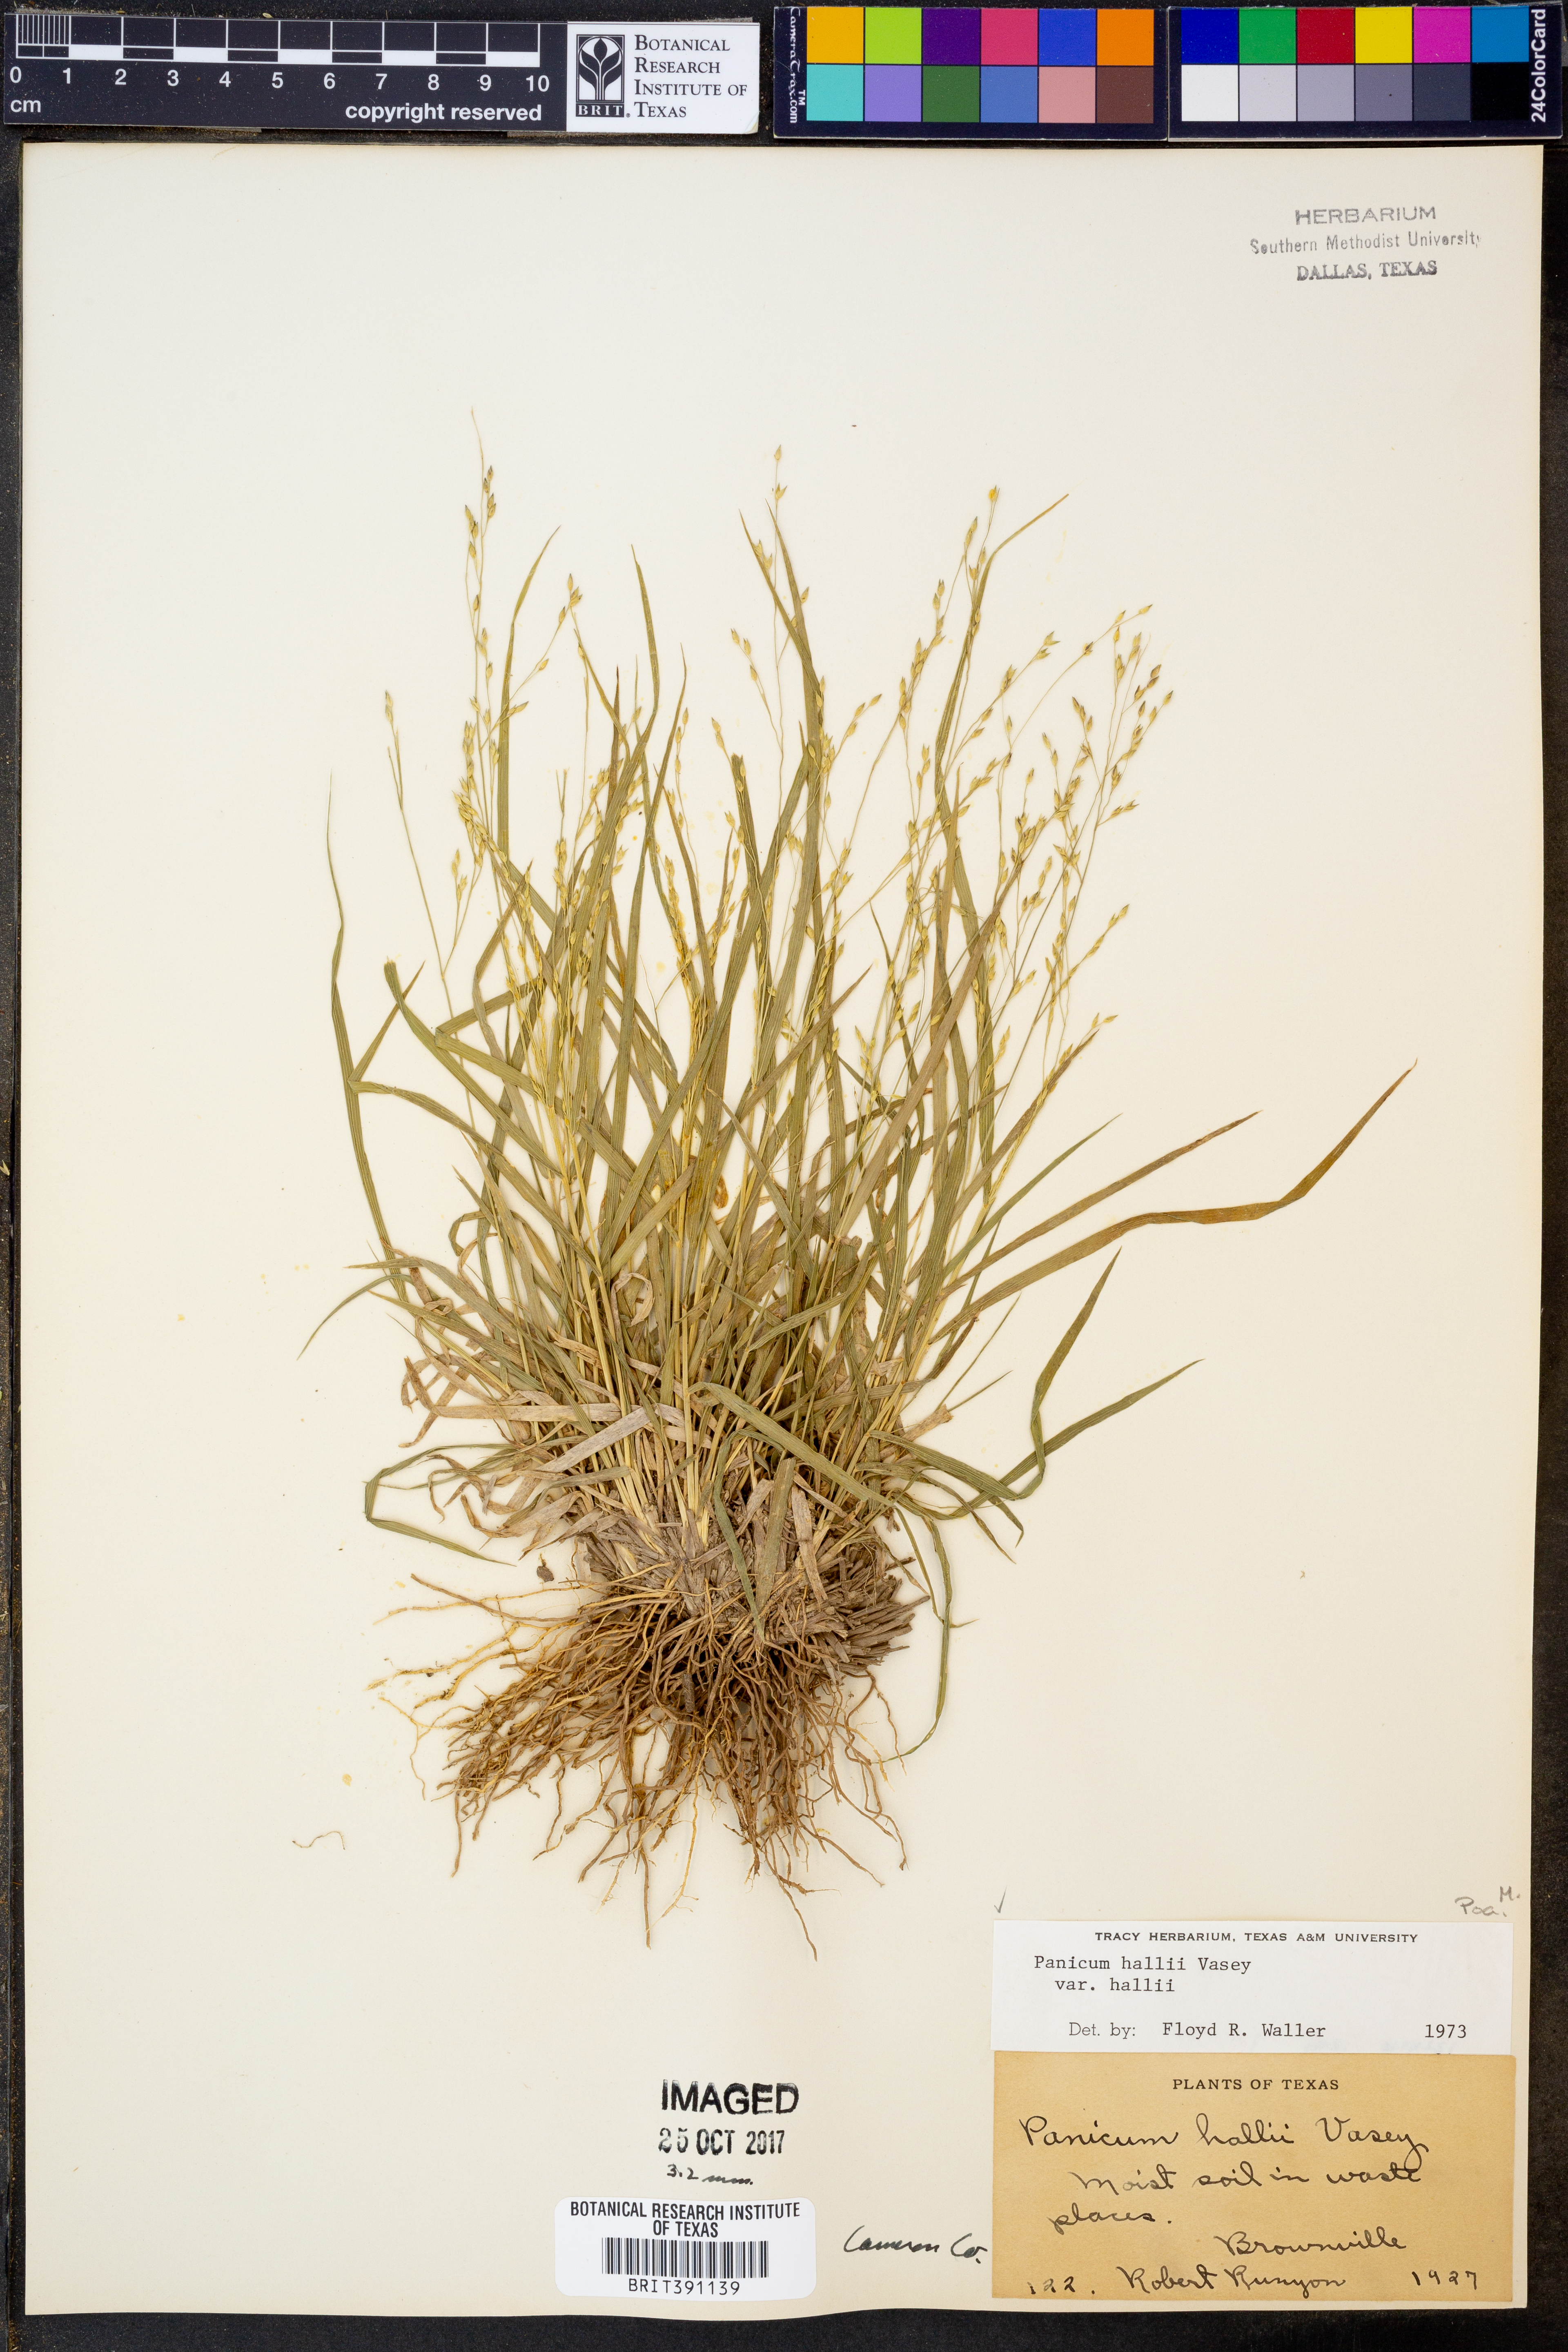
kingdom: Plantae
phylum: Tracheophyta
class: Liliopsida
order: Poales
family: Poaceae
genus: Panicum
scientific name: Panicum hallii
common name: Hall's witchgrass
